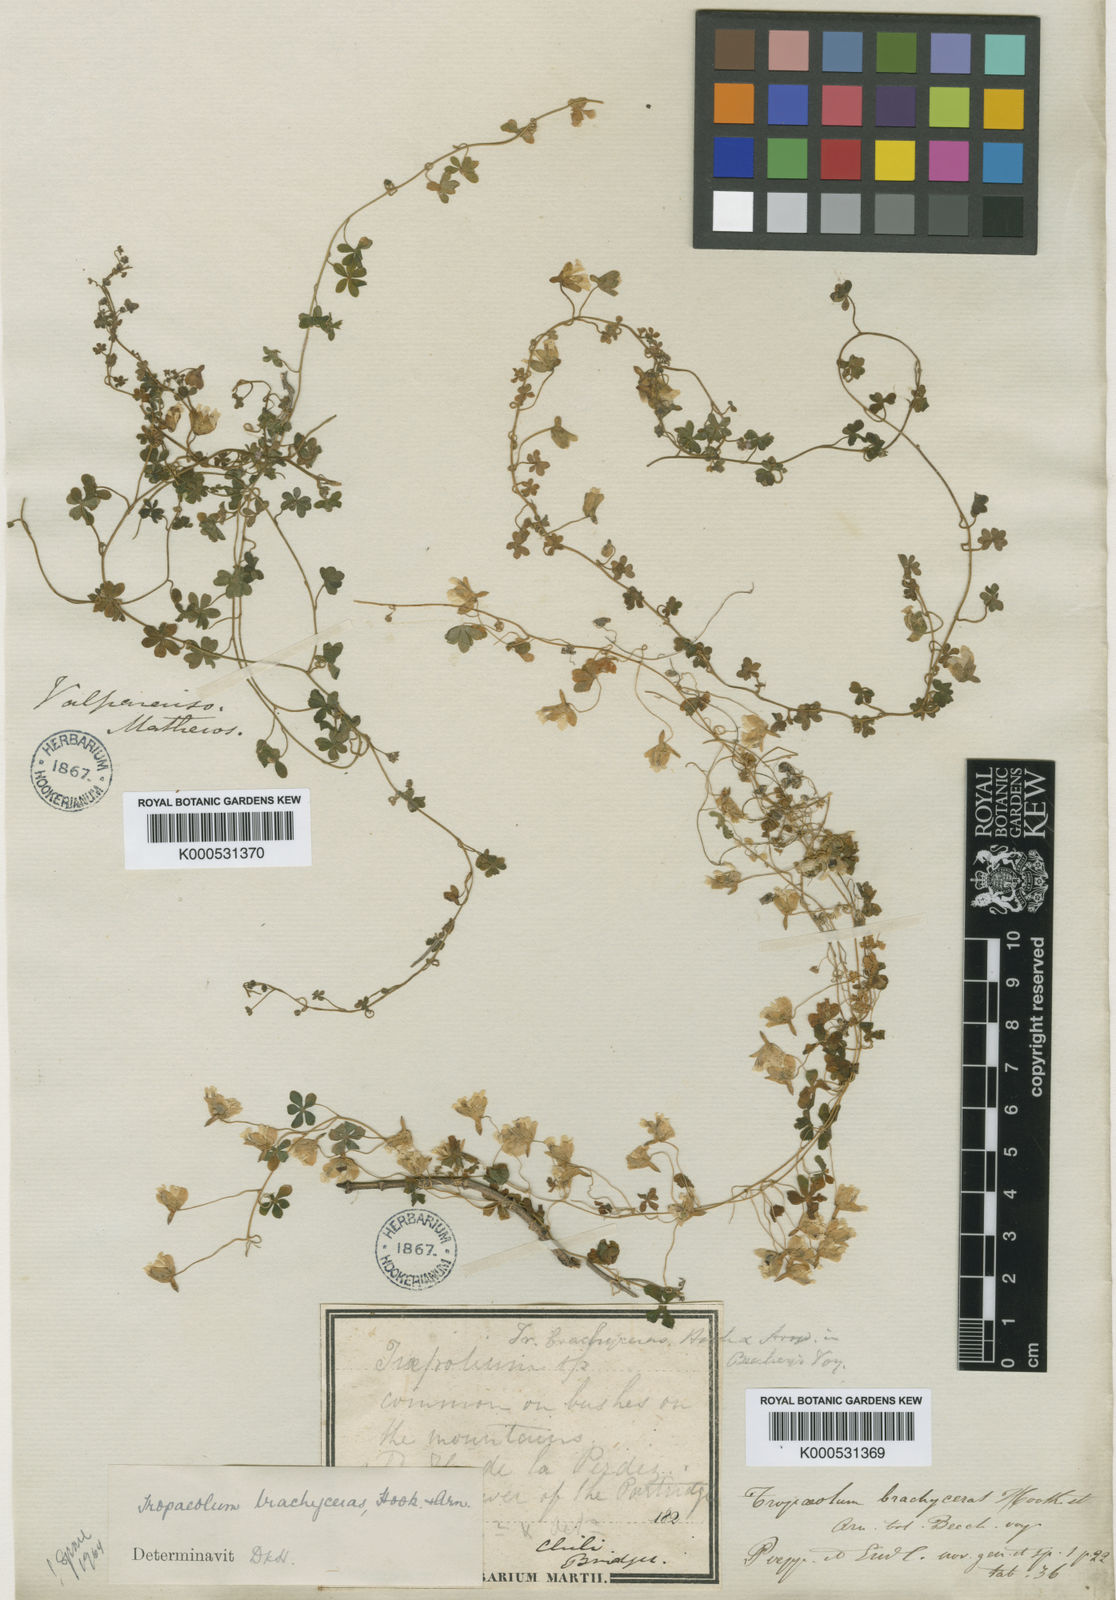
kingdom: Plantae
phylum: Tracheophyta
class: Magnoliopsida
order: Brassicales
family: Tropaeolaceae
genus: Tropaeolum
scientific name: Tropaeolum brachyceras
